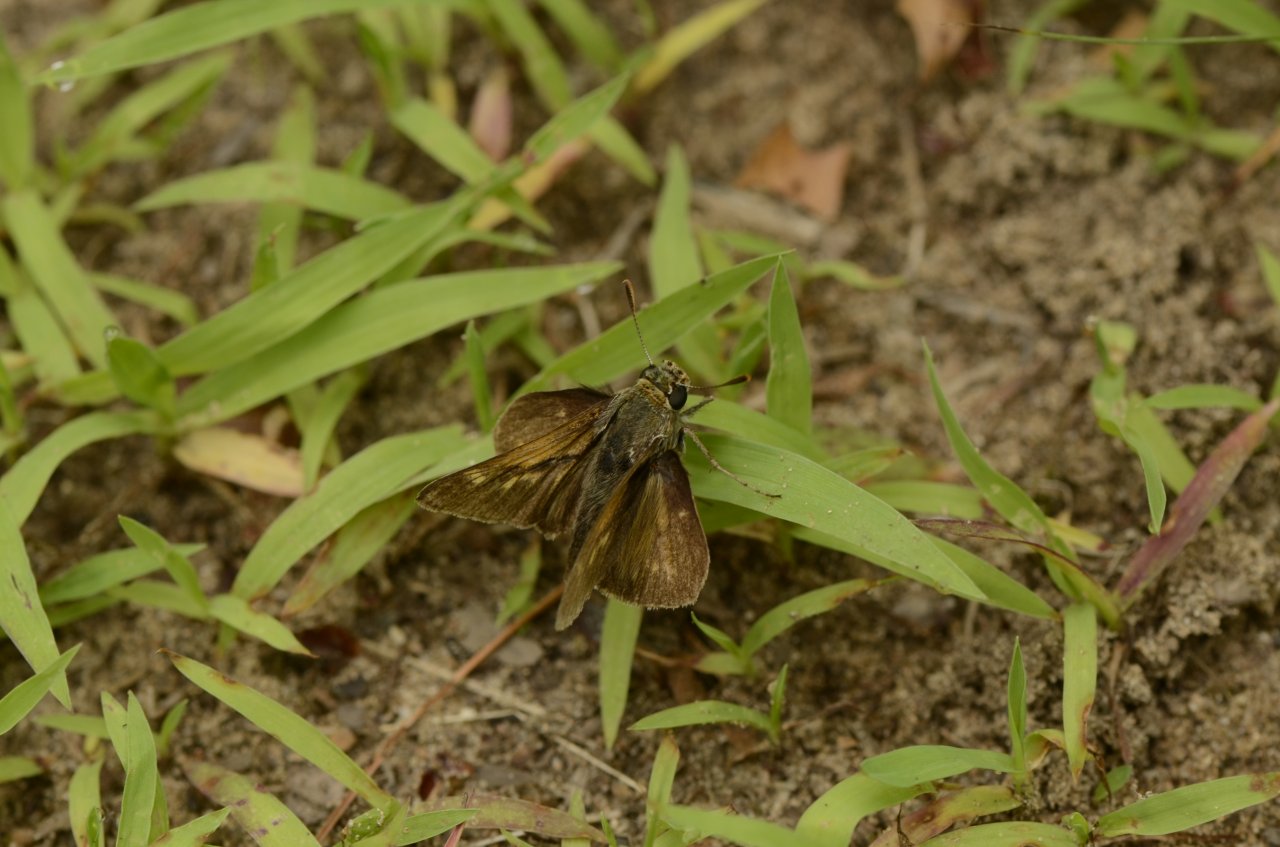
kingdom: Animalia
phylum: Arthropoda
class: Insecta
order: Lepidoptera
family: Hesperiidae
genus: Polites
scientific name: Polites egeremet
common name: Northern Broken-Dash
